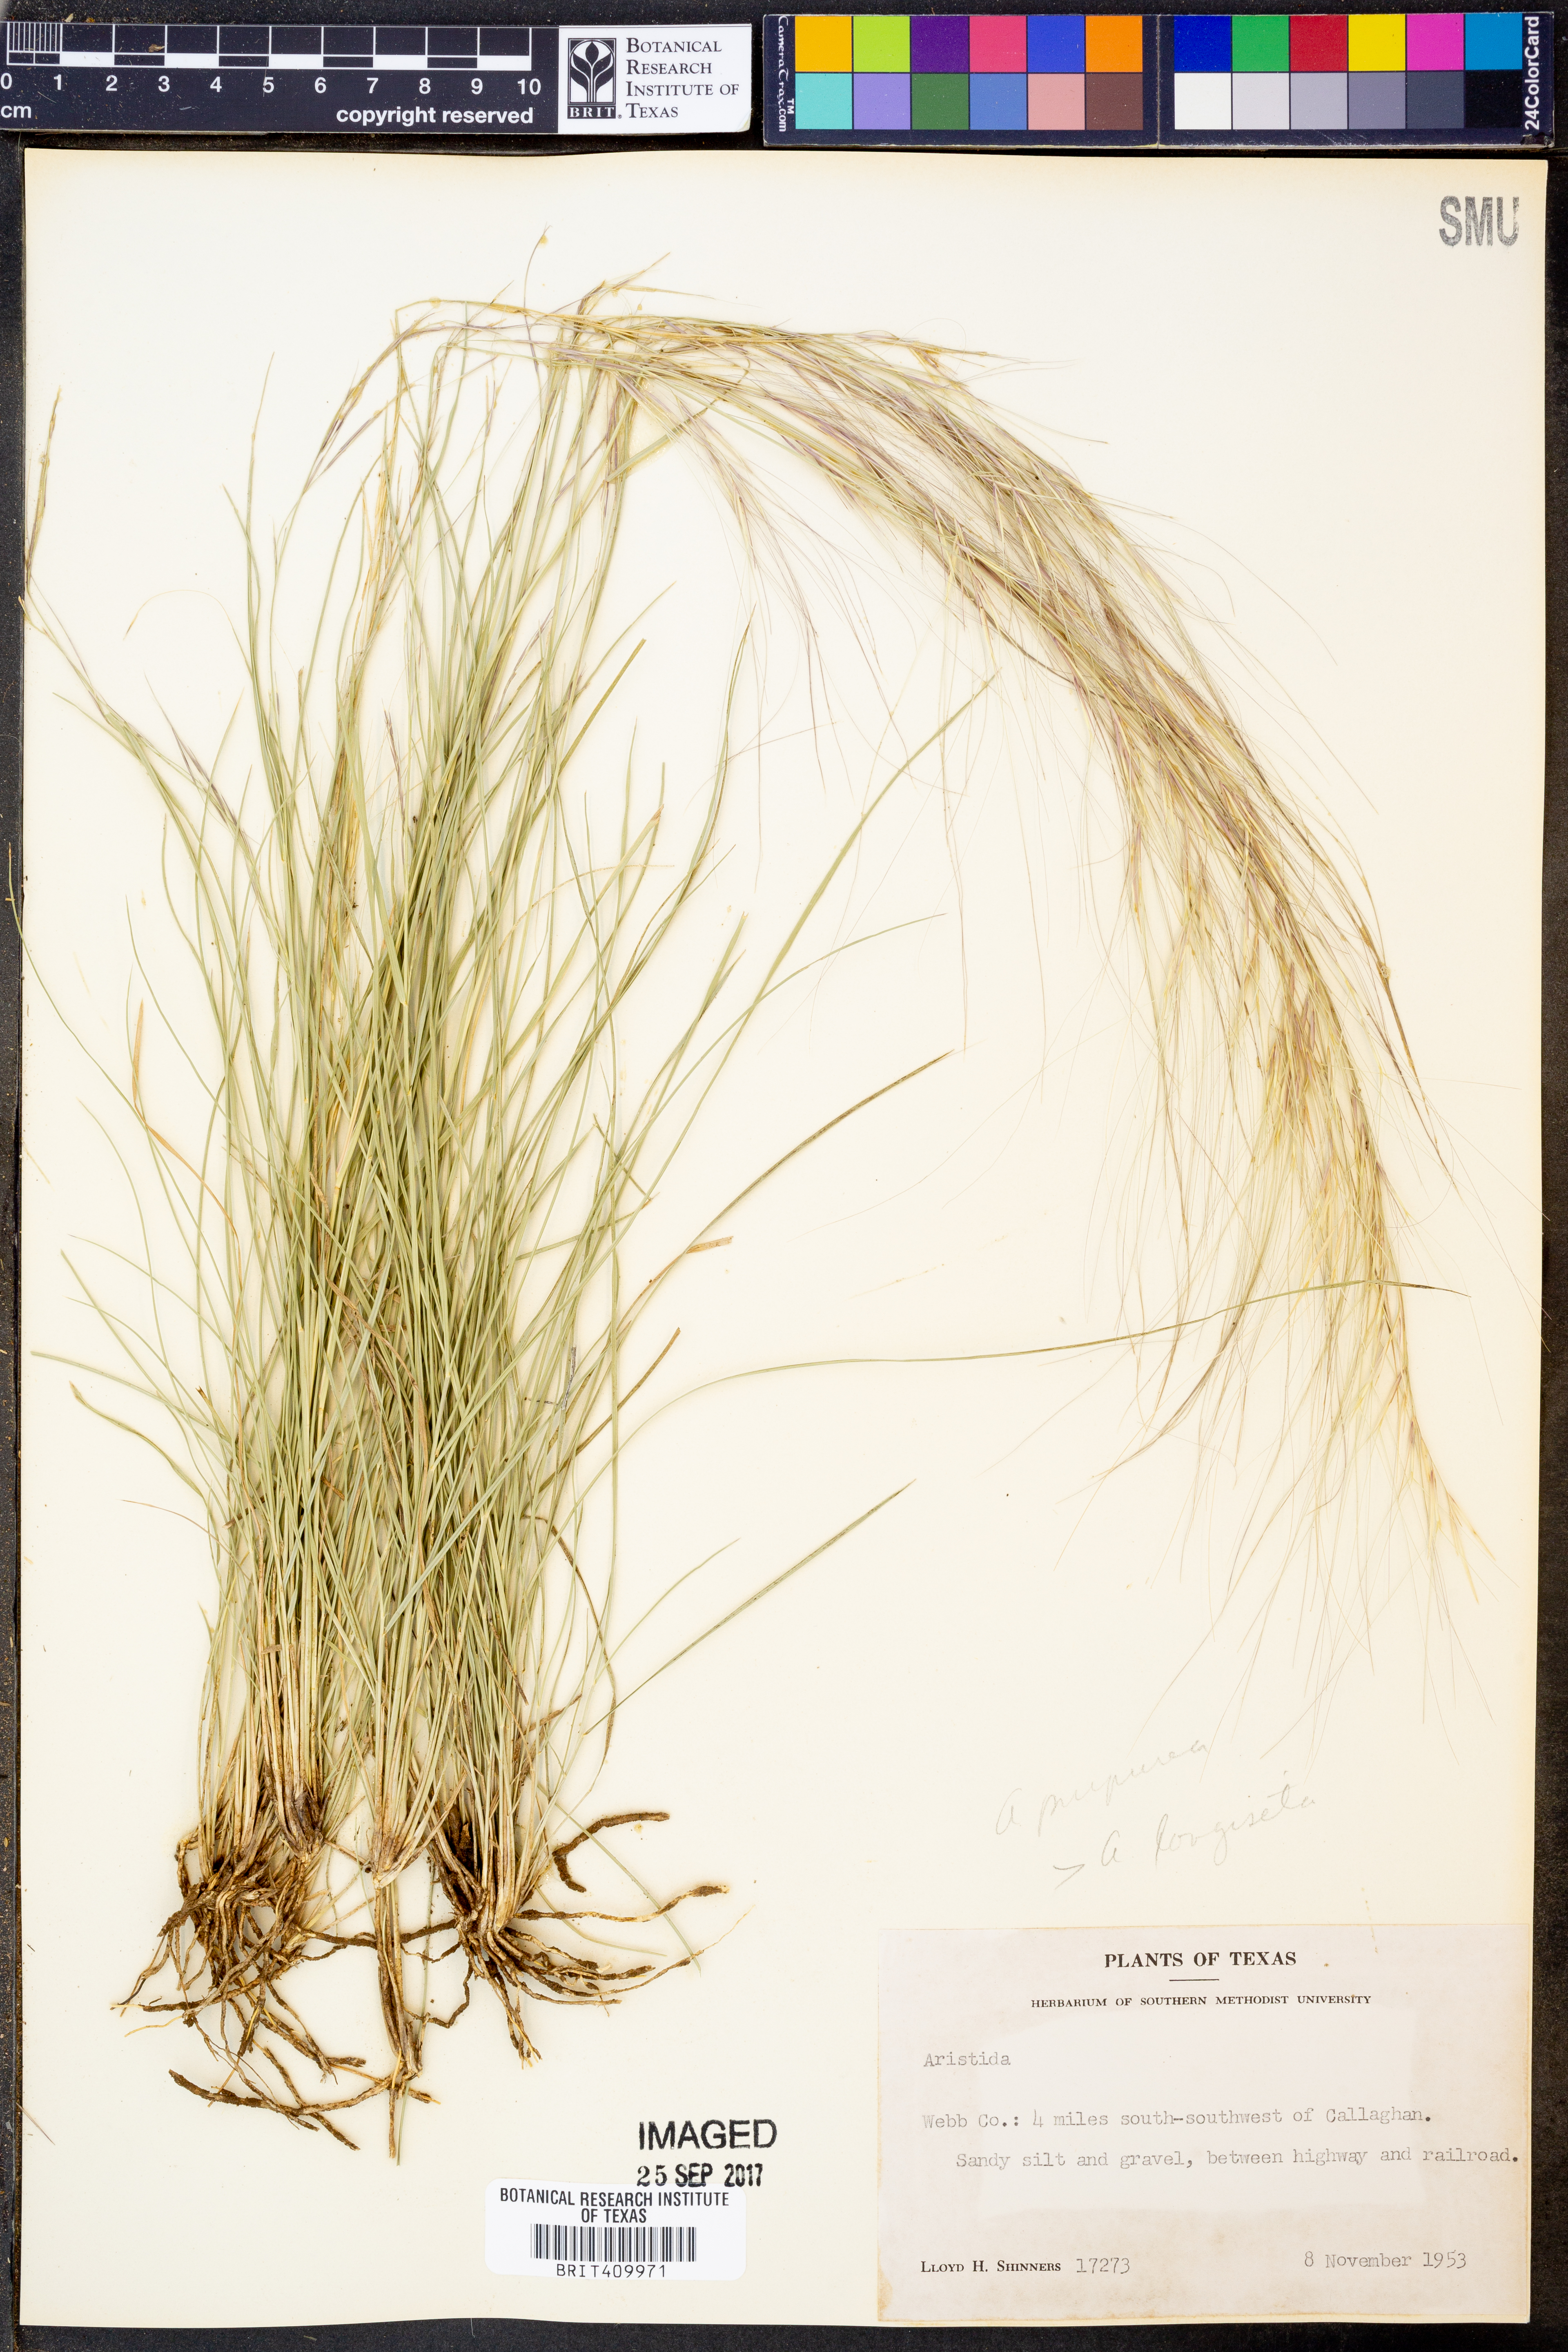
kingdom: Plantae
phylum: Tracheophyta
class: Liliopsida
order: Poales
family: Poaceae
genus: Aristida
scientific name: Aristida
